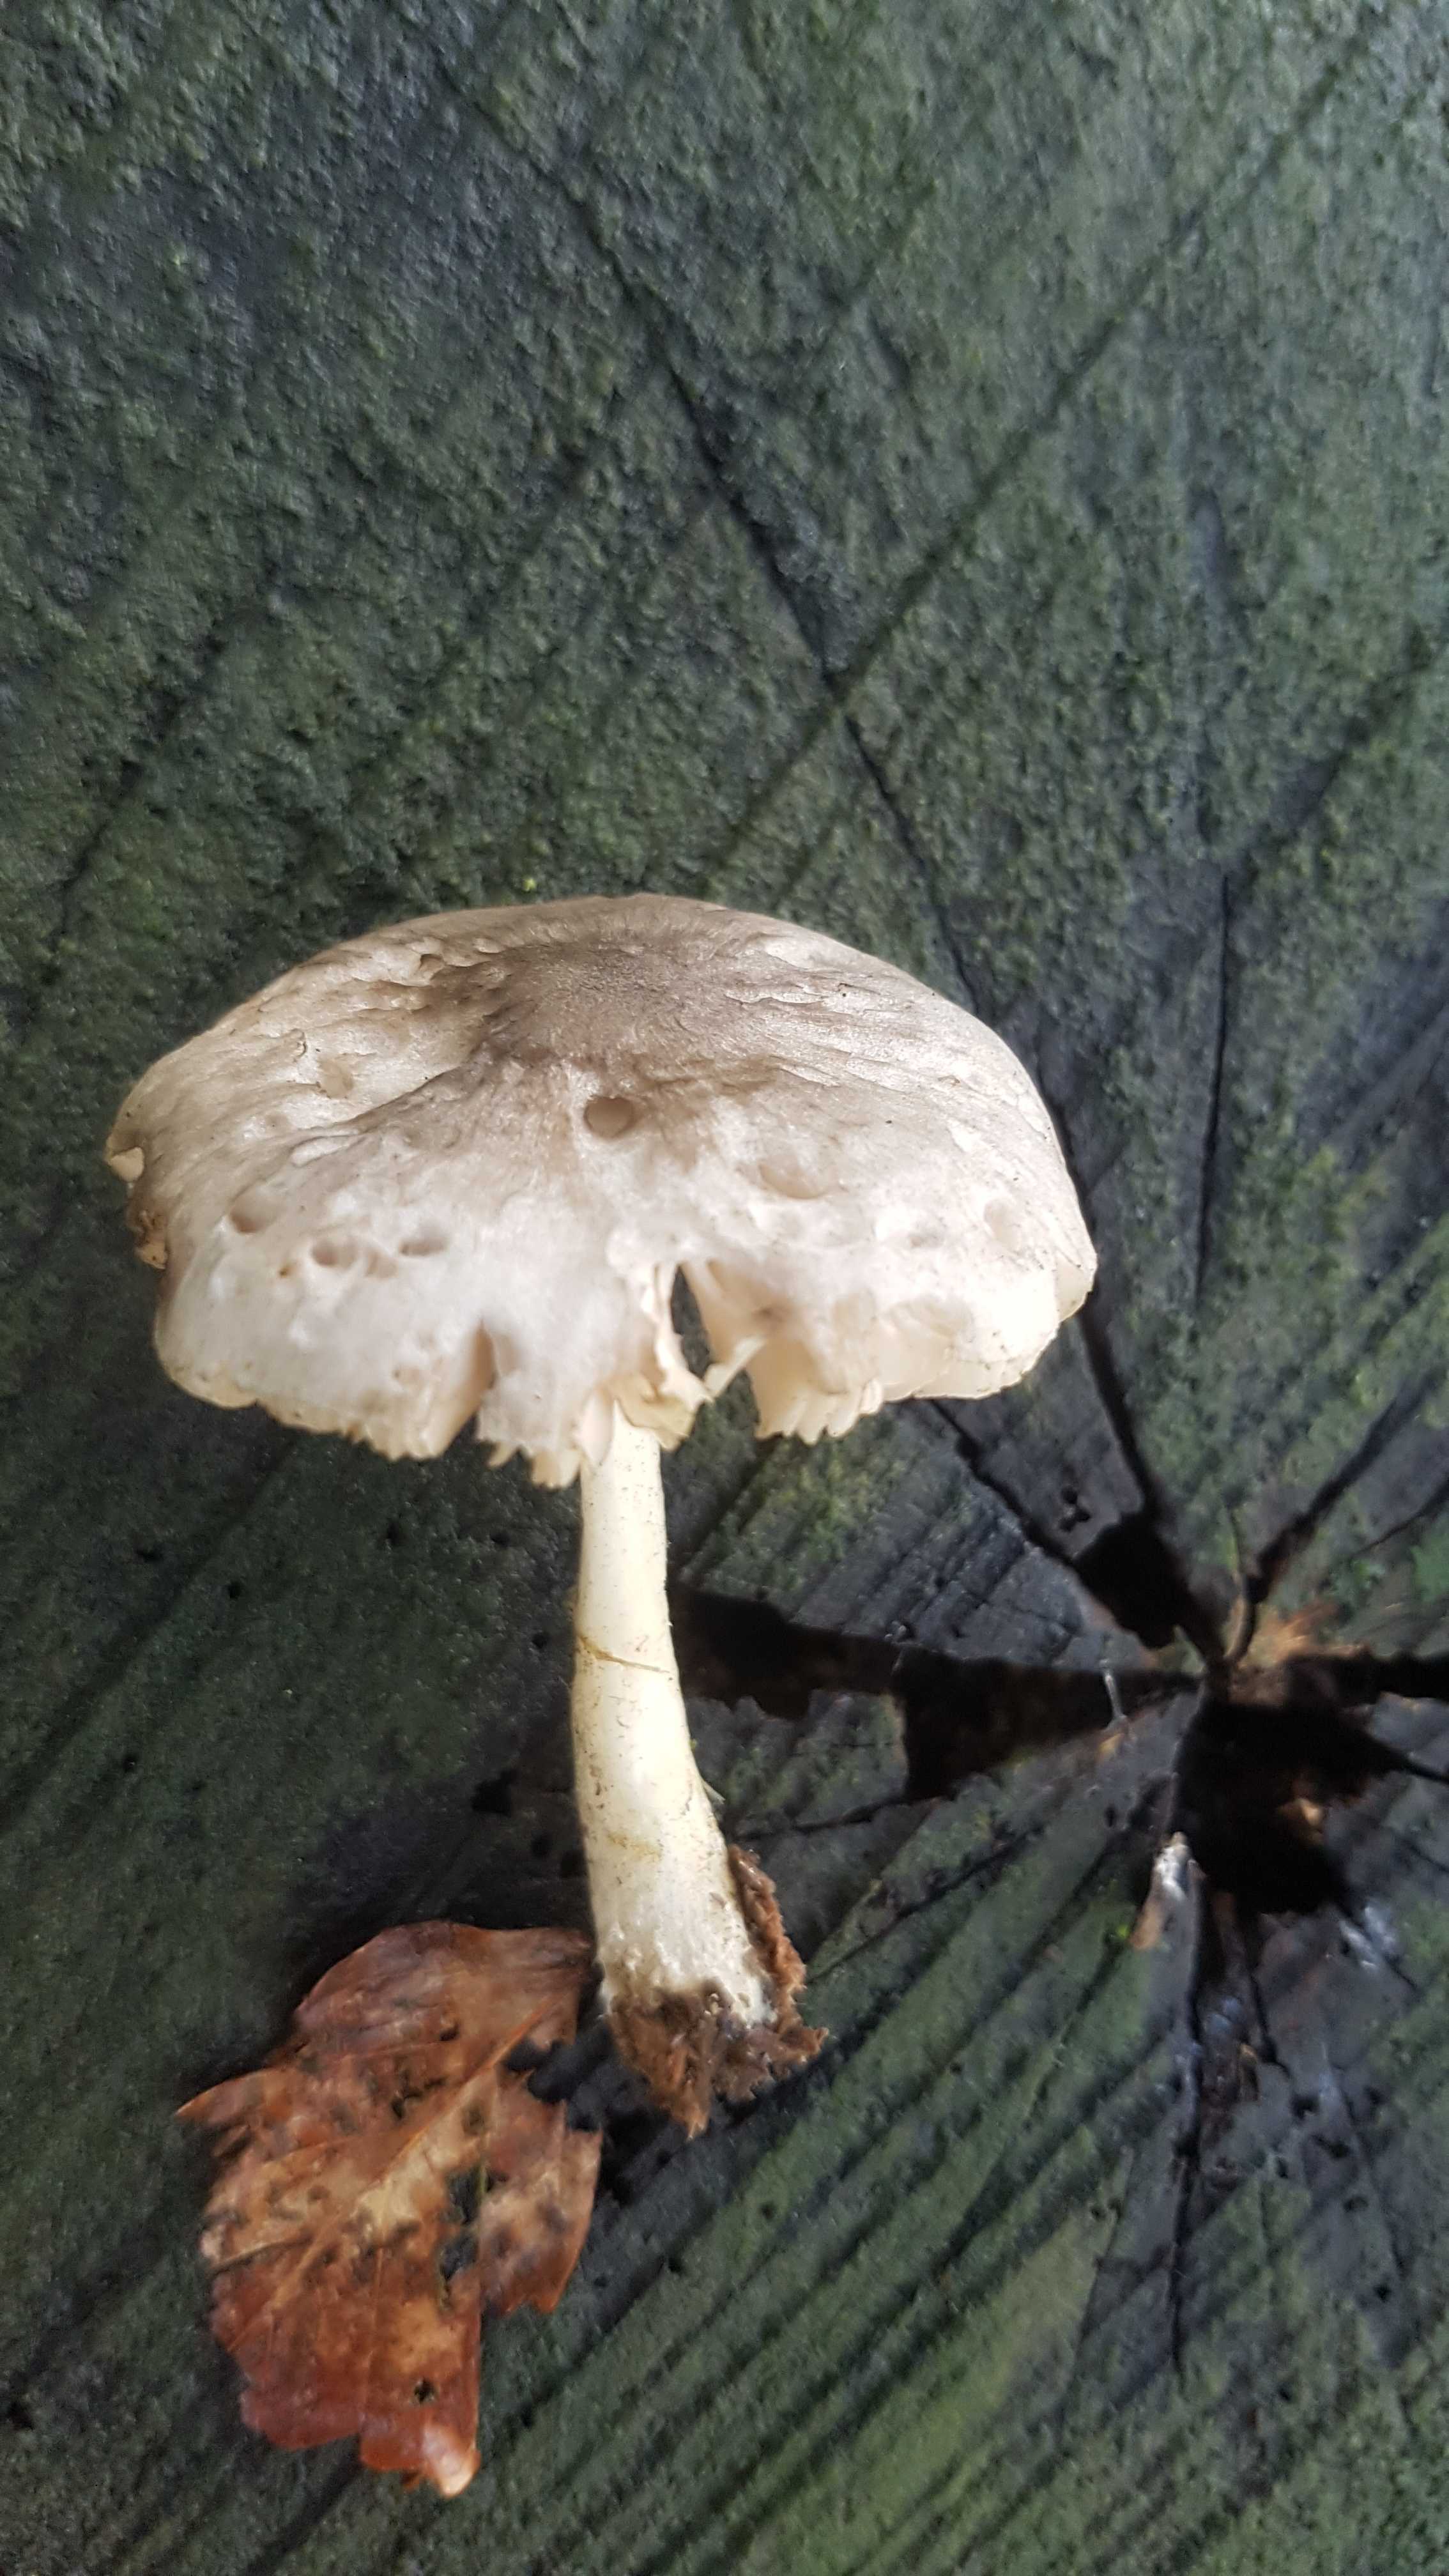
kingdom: Fungi
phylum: Basidiomycota
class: Agaricomycetes
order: Agaricales
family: Pluteaceae
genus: Pluteus
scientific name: Pluteus salicinus
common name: stiv skærmhat
